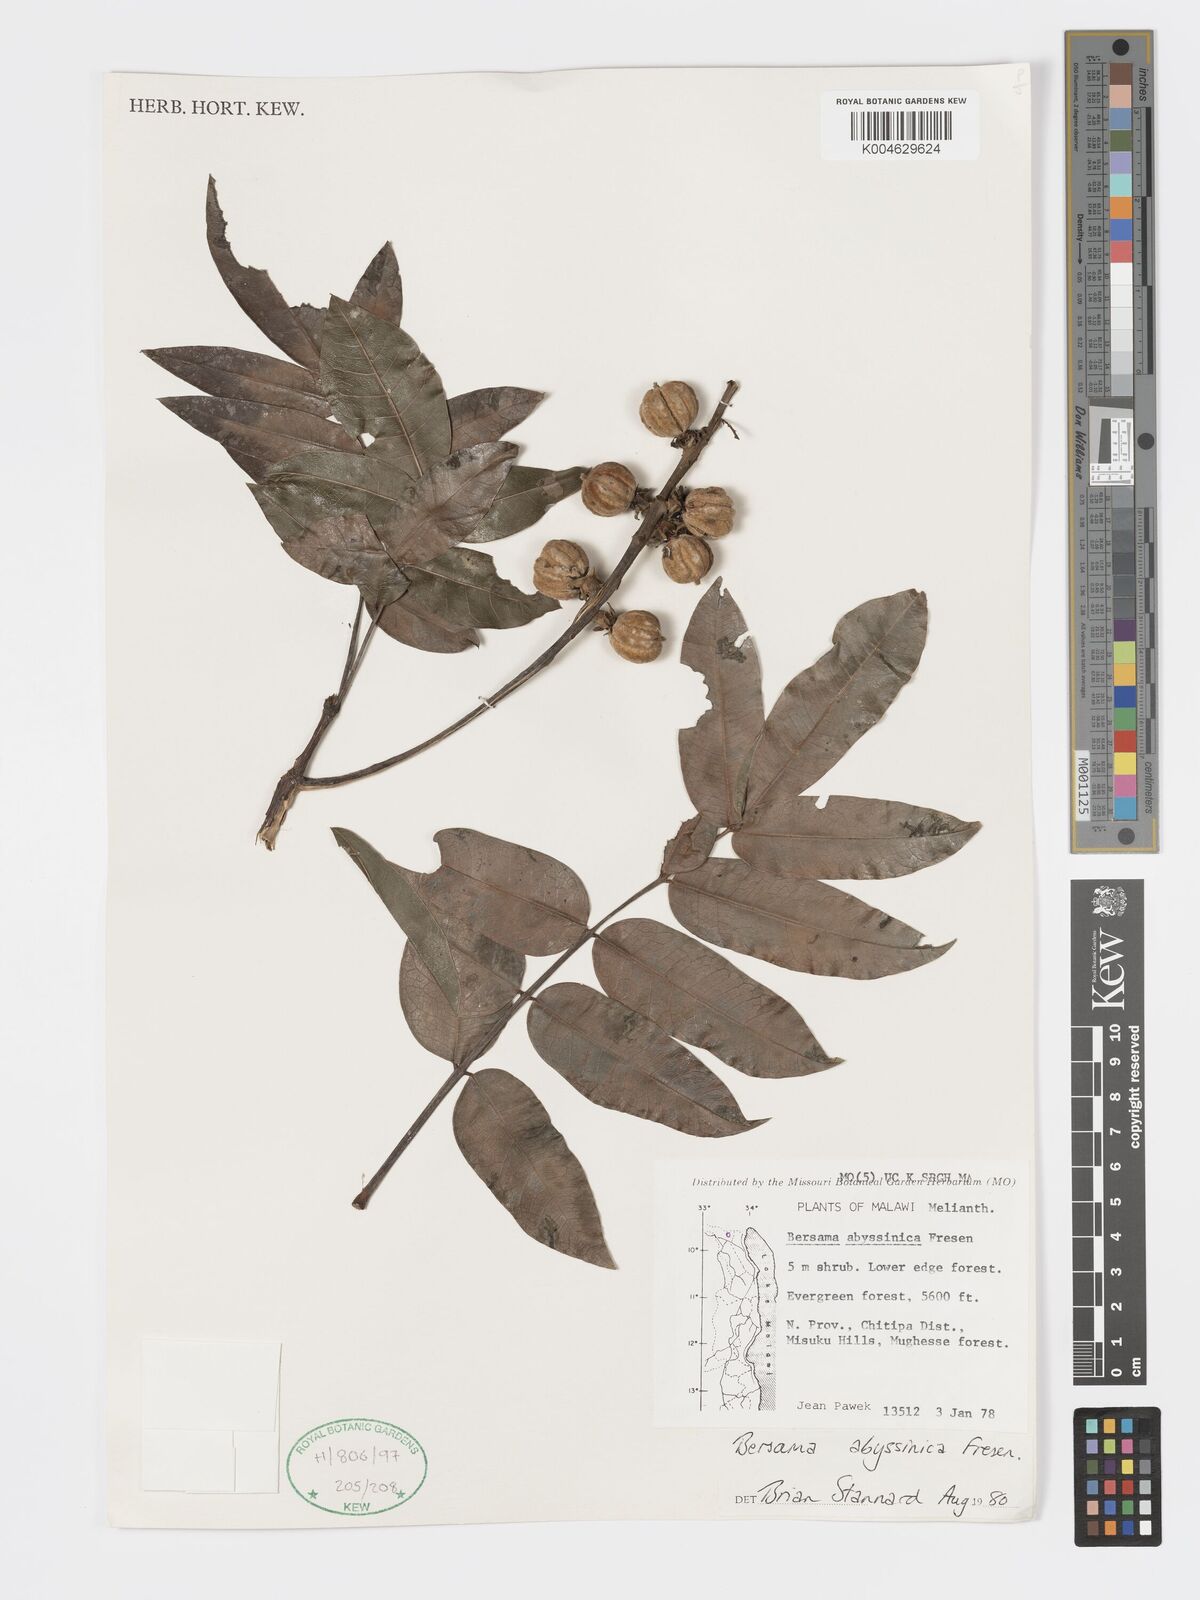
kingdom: Plantae
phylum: Tracheophyta
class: Magnoliopsida
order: Geraniales
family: Melianthaceae
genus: Bersama
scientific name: Bersama abyssinica
